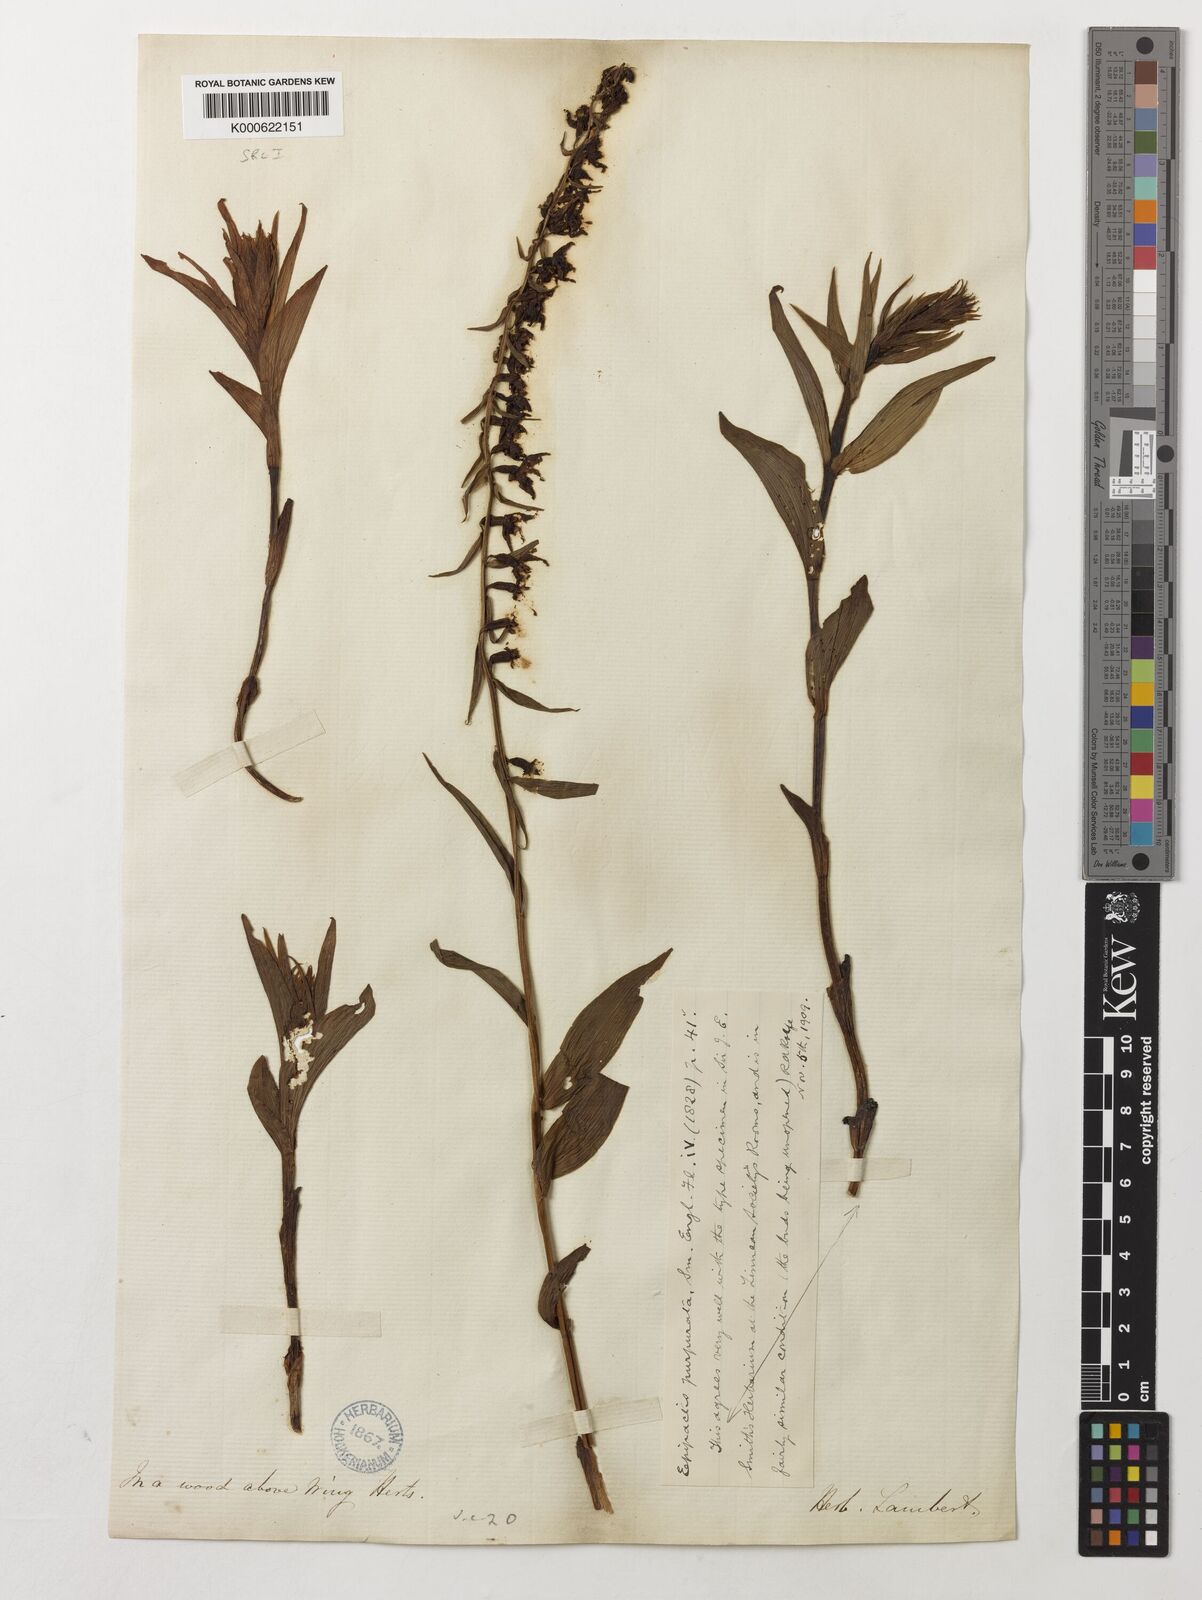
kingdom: Plantae
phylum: Tracheophyta
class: Liliopsida
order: Asparagales
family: Orchidaceae
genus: Epipactis
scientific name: Epipactis purpurata
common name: Violet helleborine
